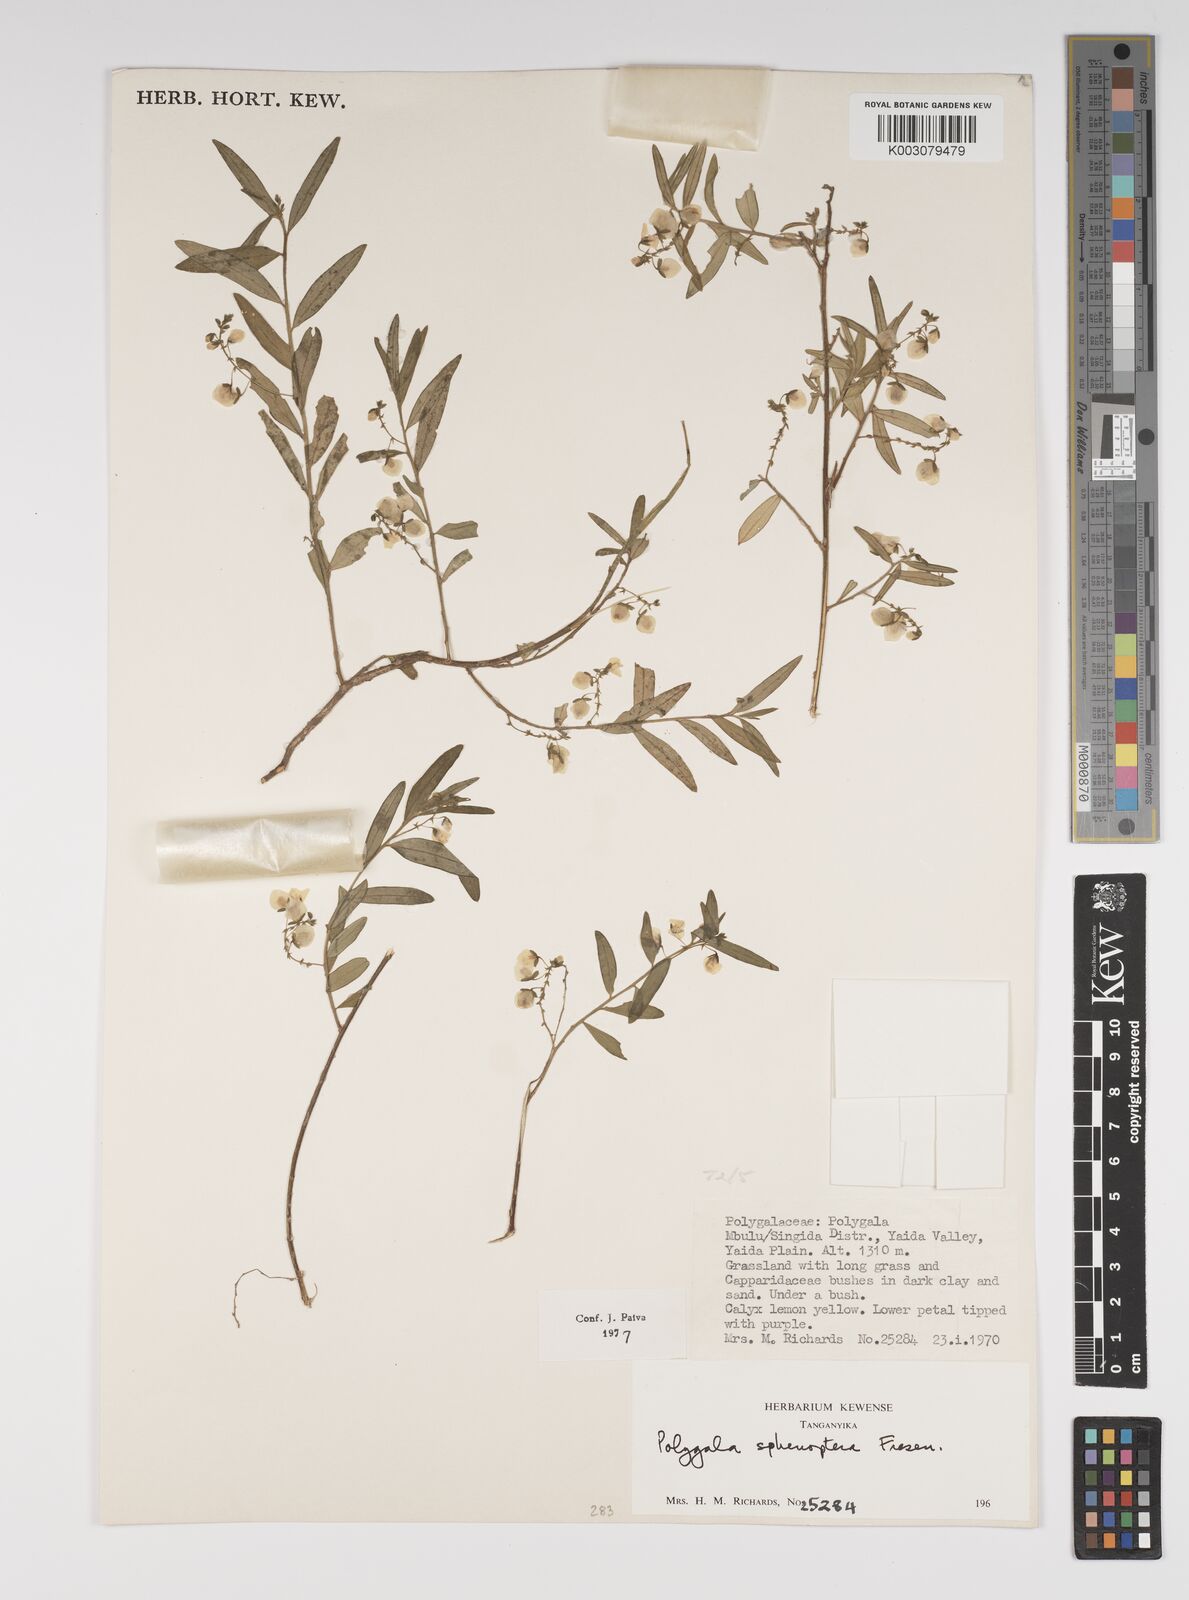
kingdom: Plantae
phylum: Tracheophyta
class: Magnoliopsida
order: Fabales
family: Polygalaceae
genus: Polygala
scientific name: Polygala sphenoptera
